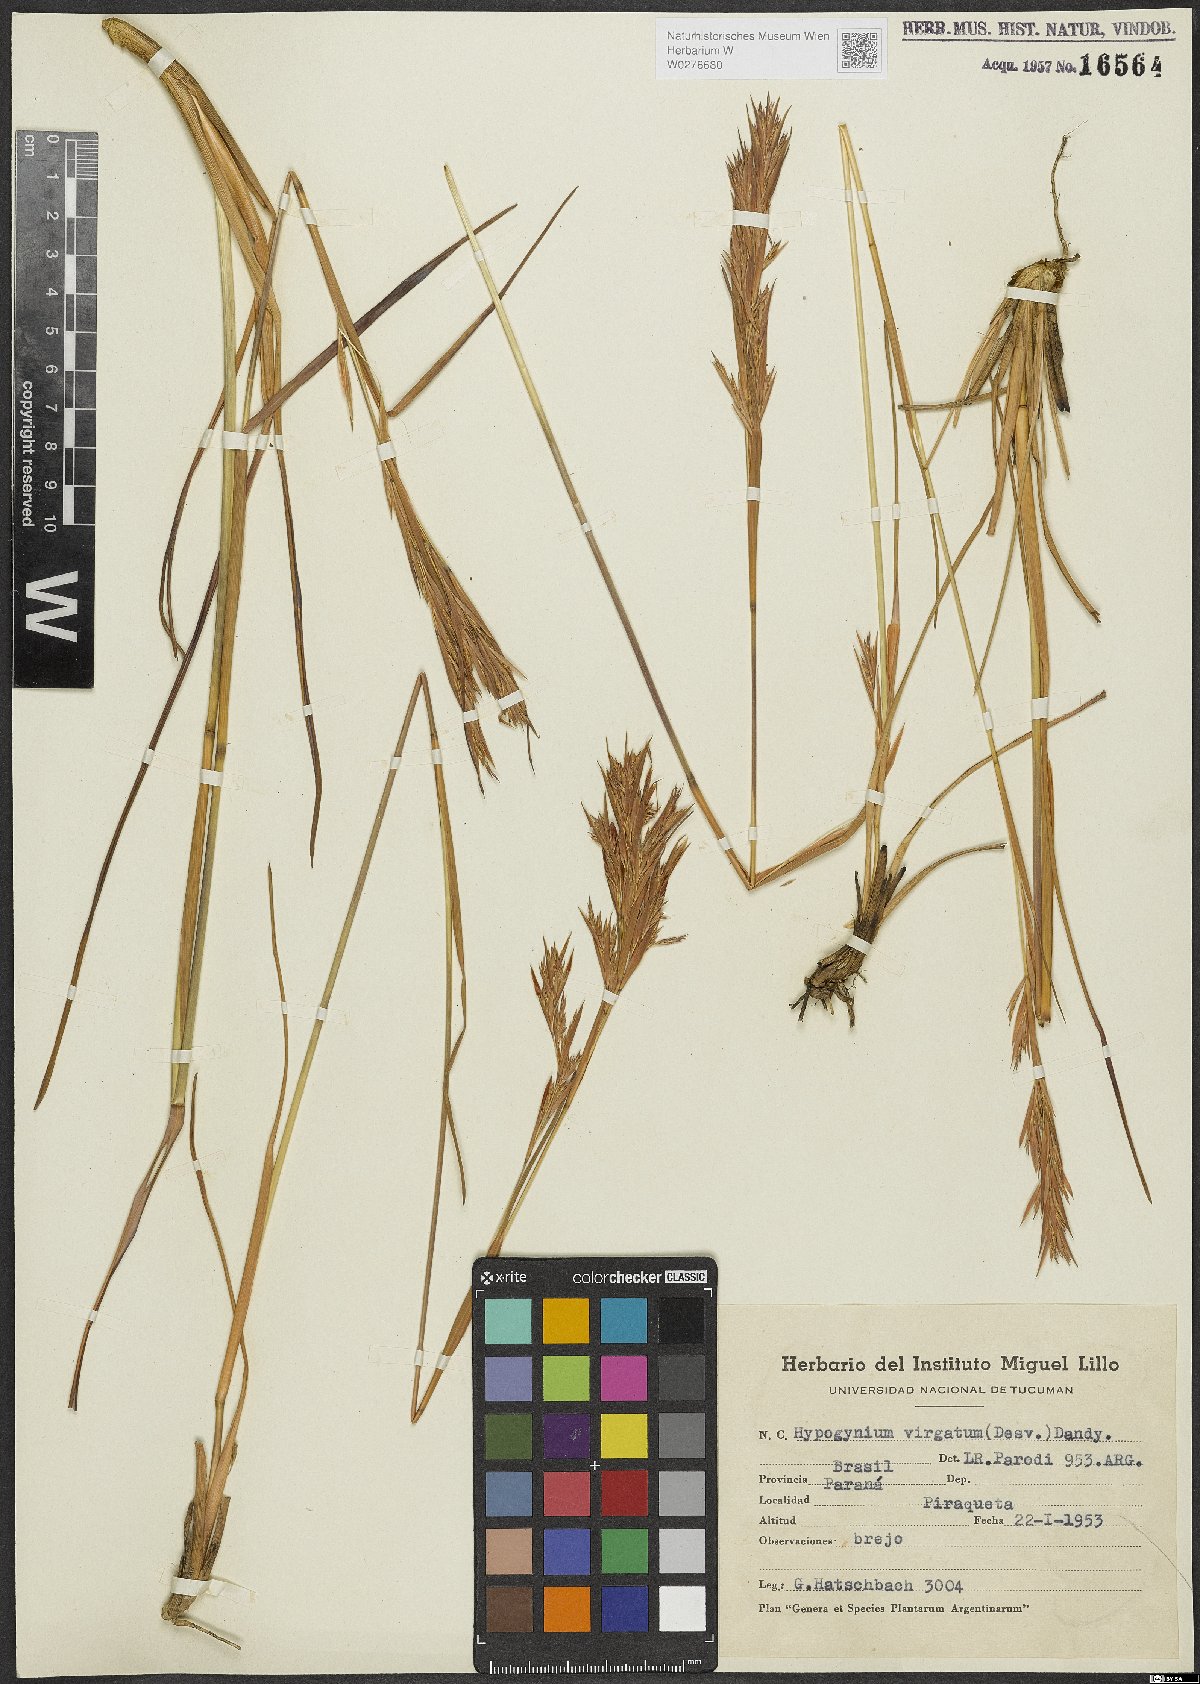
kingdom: Plantae
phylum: Tracheophyta
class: Liliopsida
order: Poales
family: Poaceae
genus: Andropogon
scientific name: Andropogon virgatus
